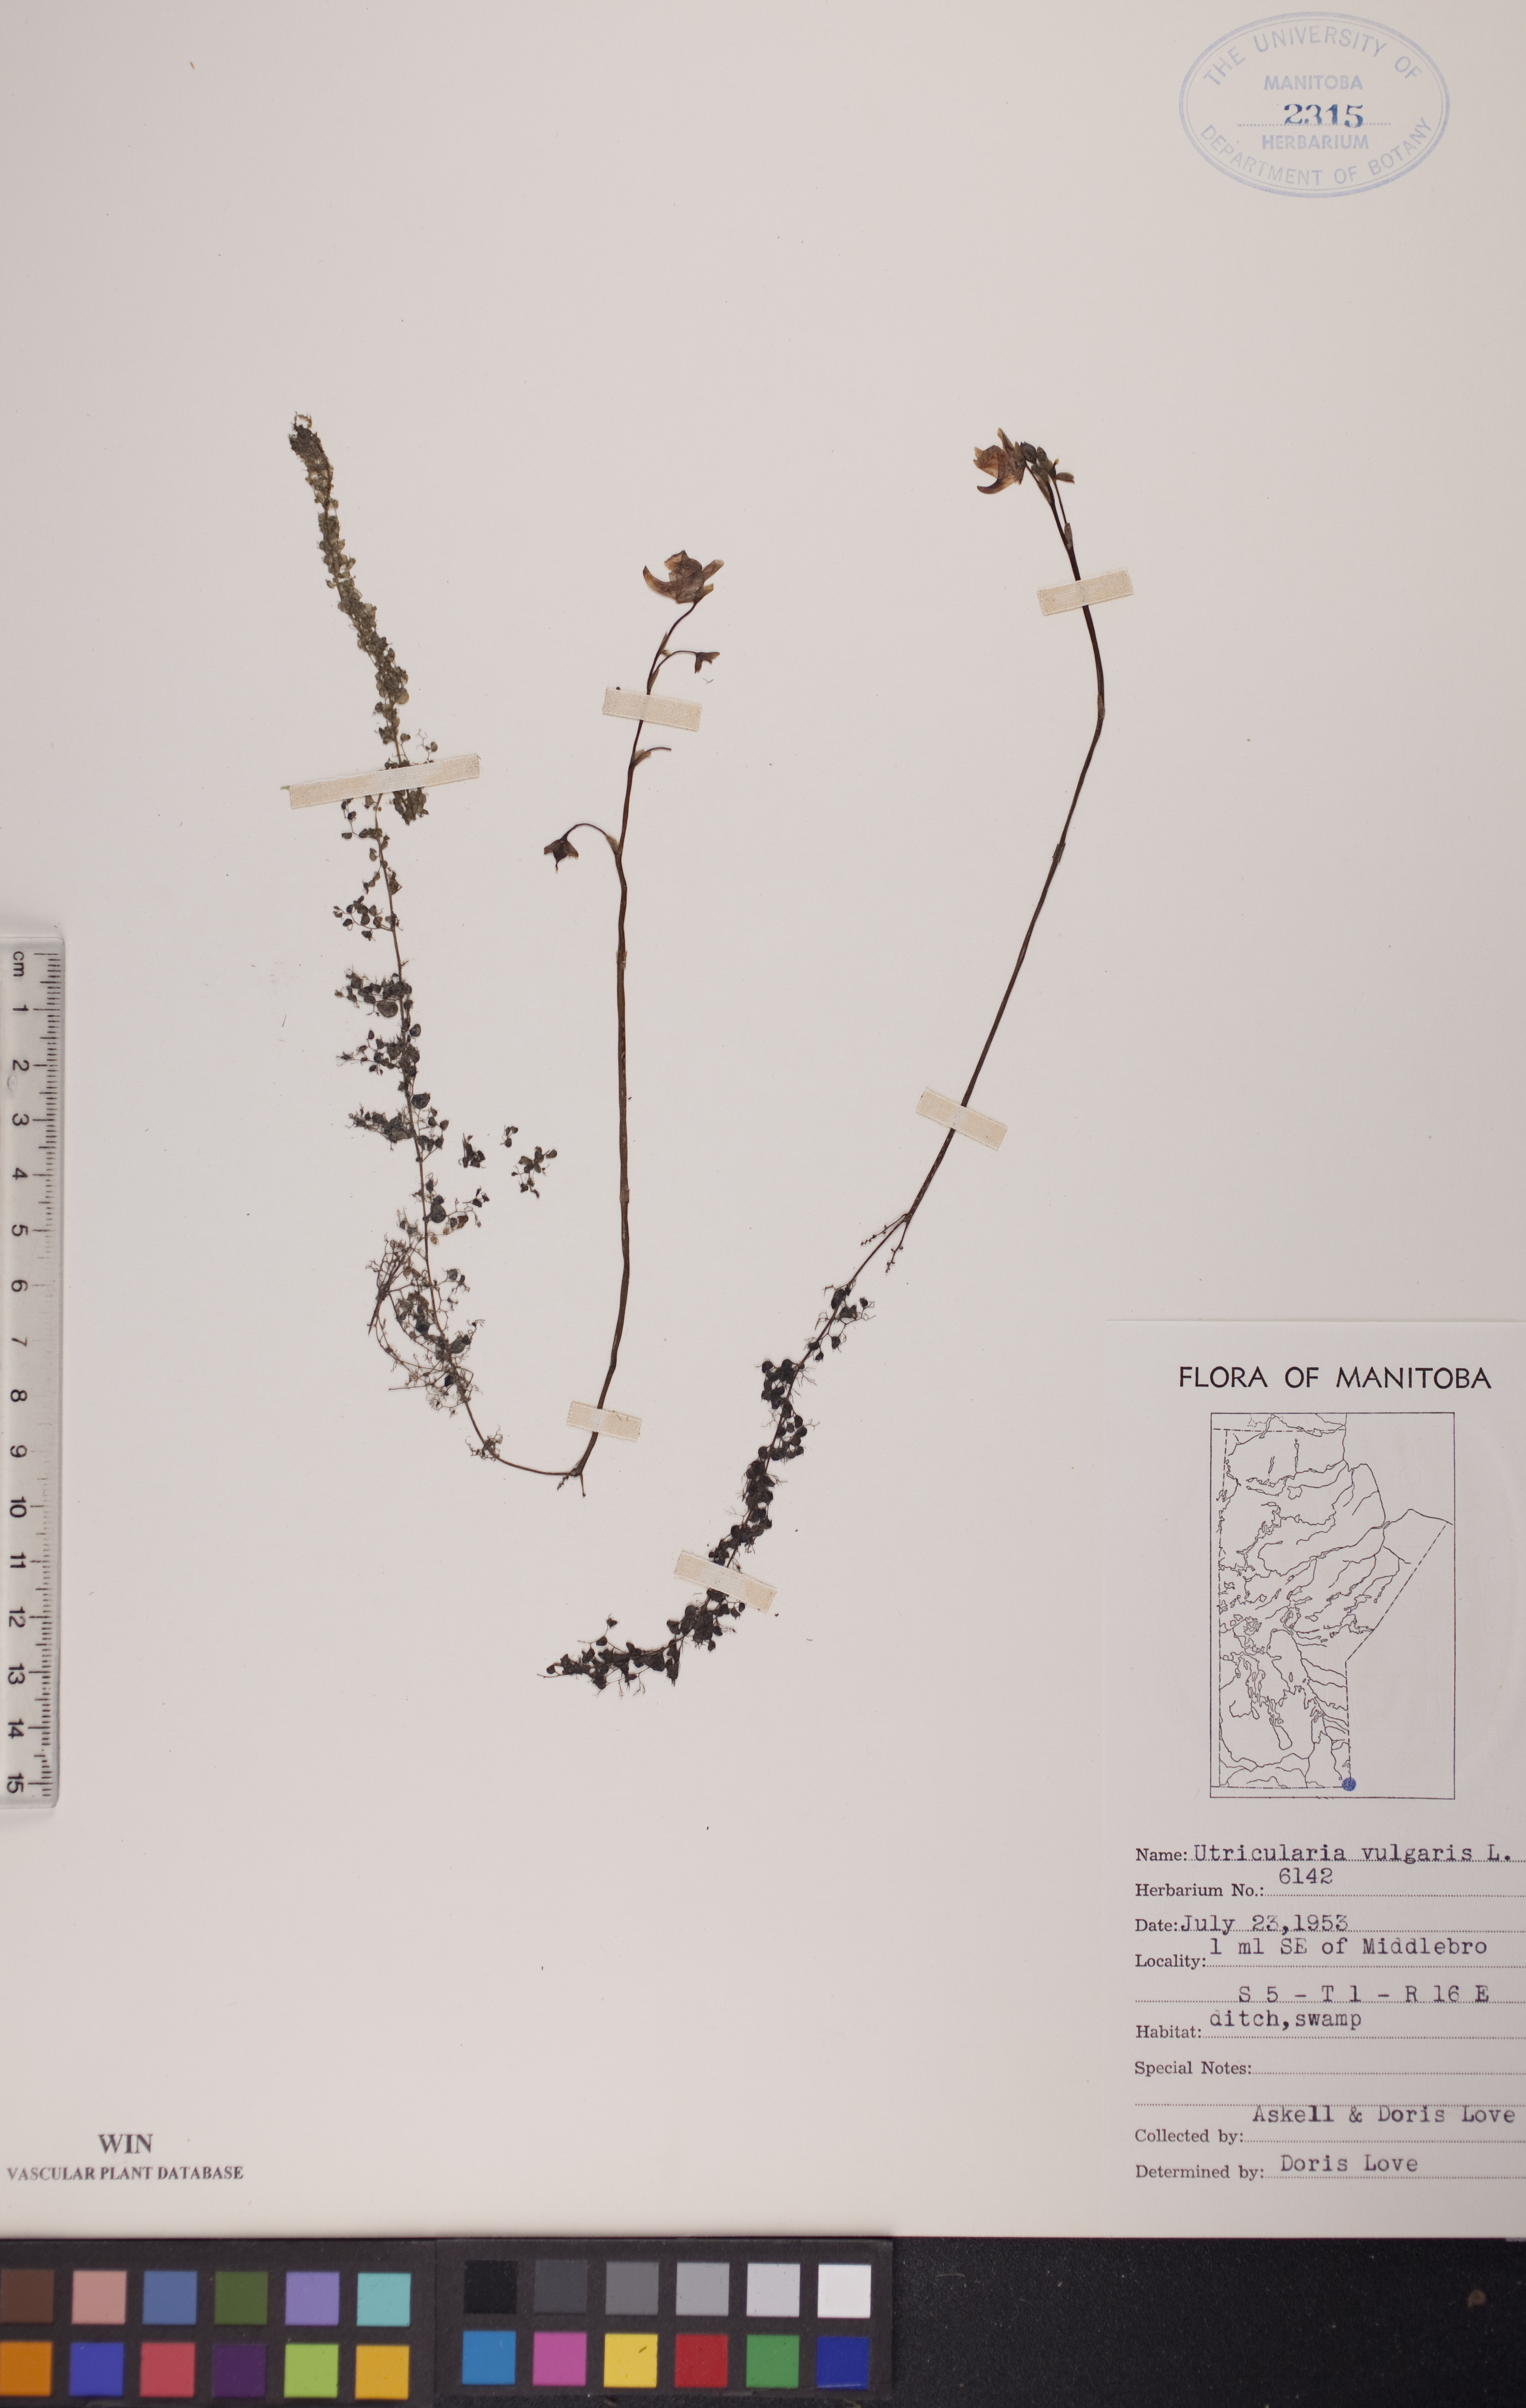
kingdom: Plantae
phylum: Tracheophyta
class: Magnoliopsida
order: Lamiales
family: Lentibulariaceae
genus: Utricularia
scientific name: Utricularia macrorhiza
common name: Common bladderwort
